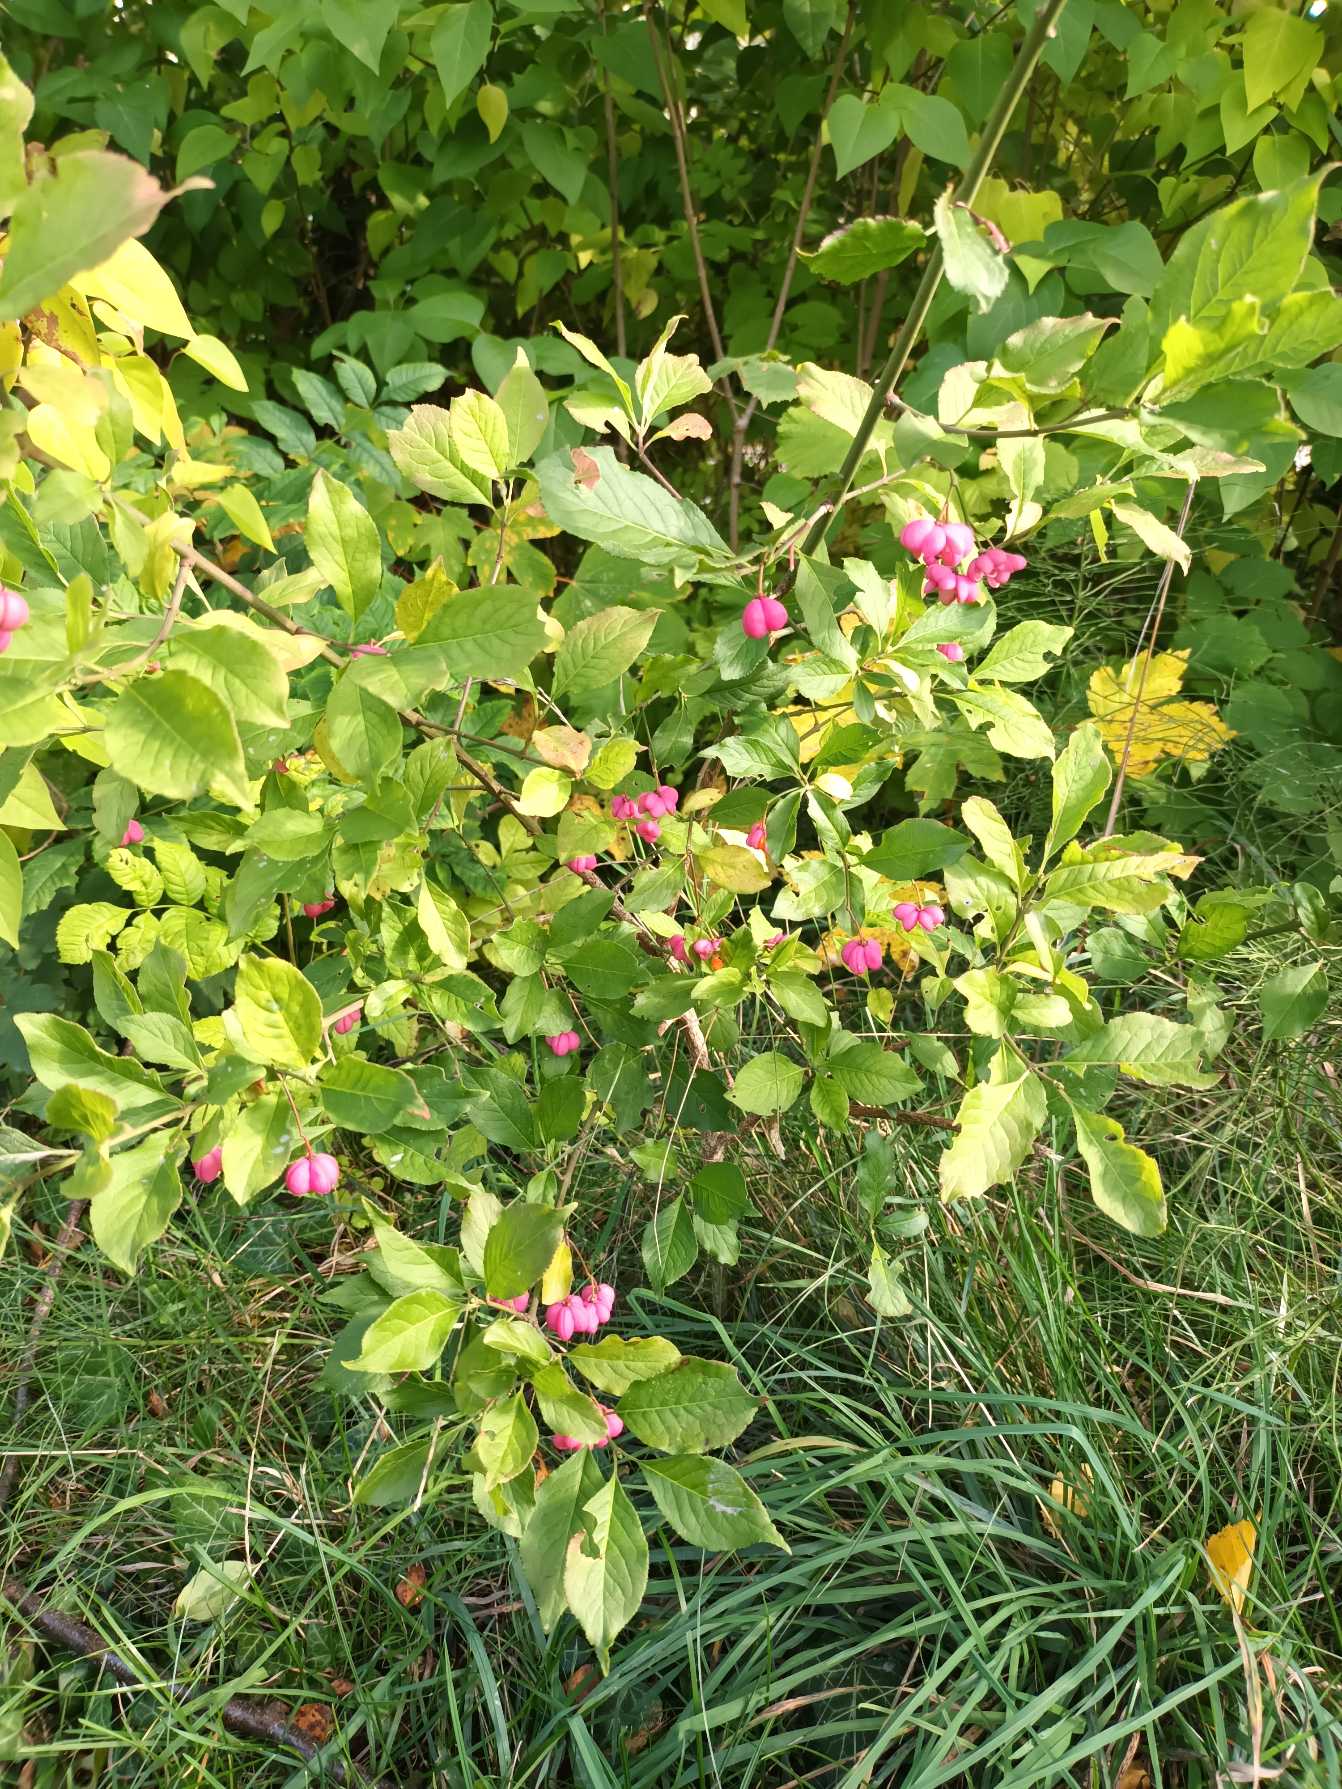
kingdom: Plantae
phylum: Tracheophyta
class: Magnoliopsida
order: Celastrales
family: Celastraceae
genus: Euonymus
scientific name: Euonymus europaeus
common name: Benved
